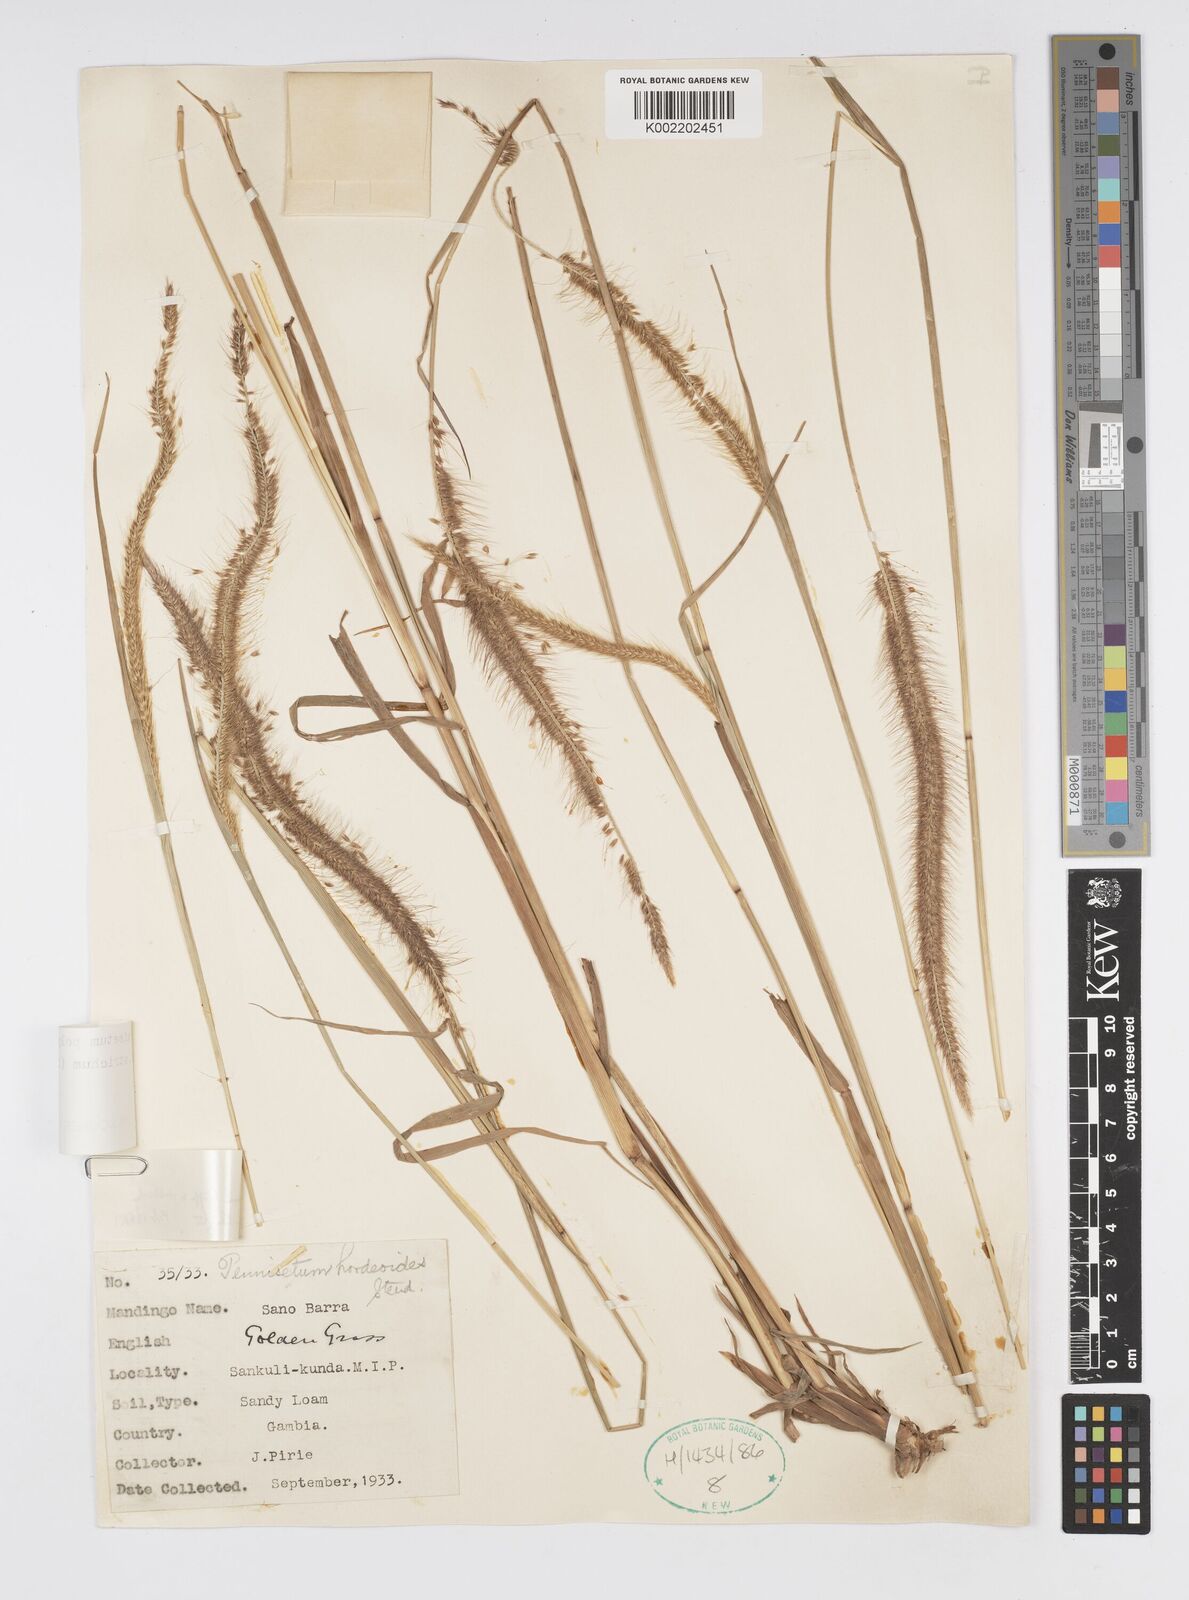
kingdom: Plantae
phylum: Tracheophyta
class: Liliopsida
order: Poales
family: Poaceae
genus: Cenchrus
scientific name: Cenchrus setosus
